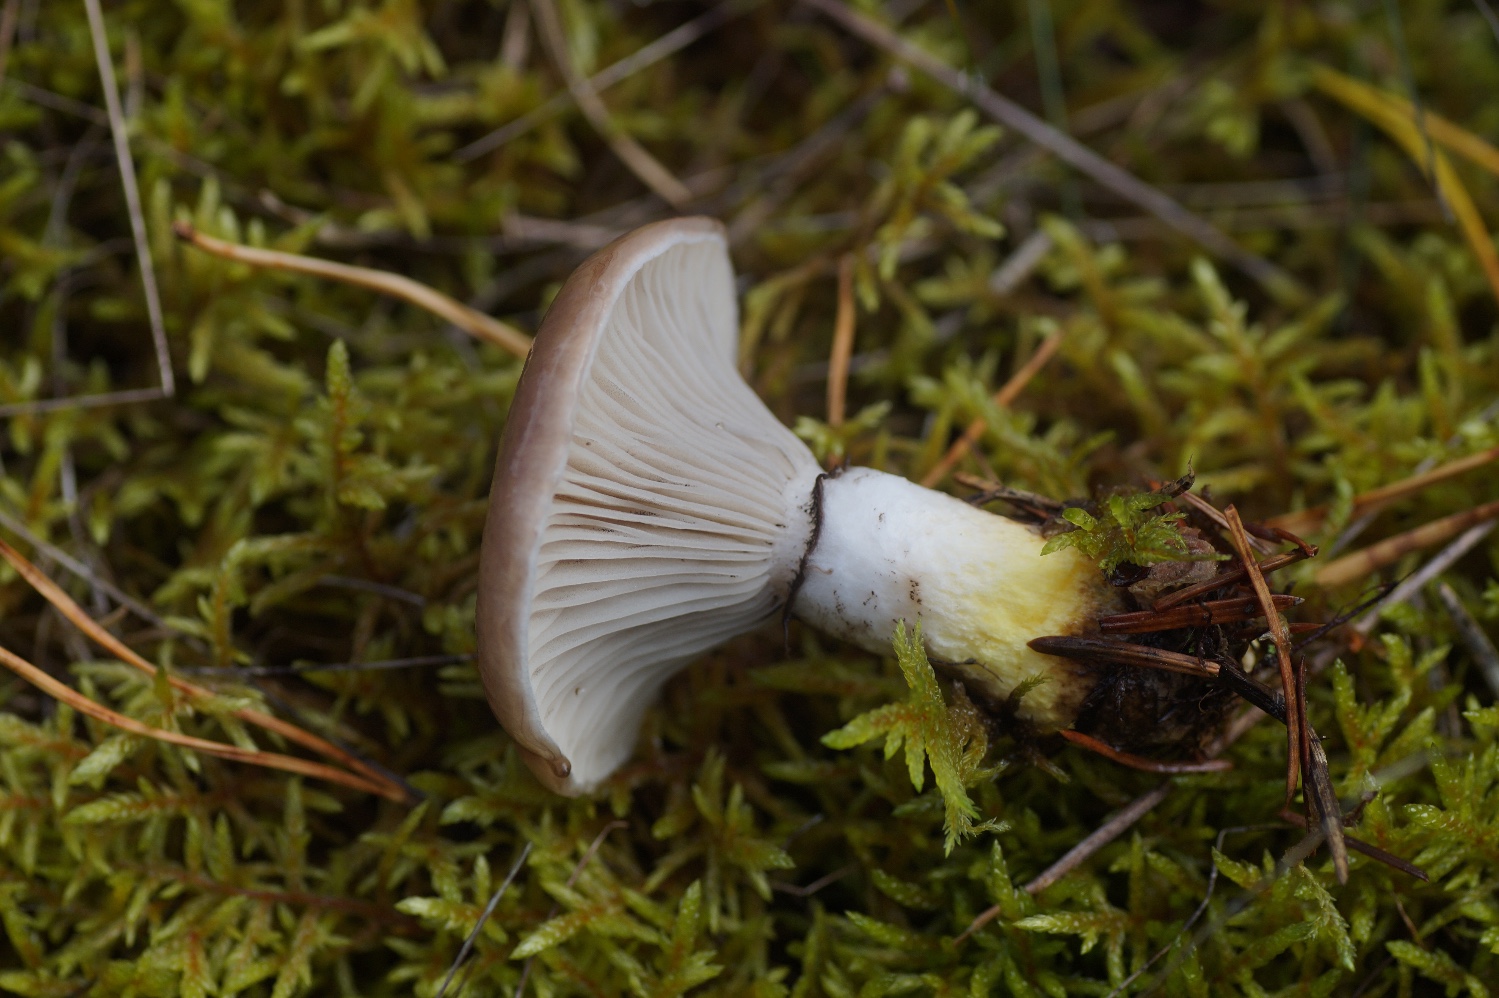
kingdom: Fungi
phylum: Basidiomycota
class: Agaricomycetes
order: Boletales
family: Gomphidiaceae
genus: Gomphidius
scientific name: Gomphidius glutinosus
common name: grå slimslør
